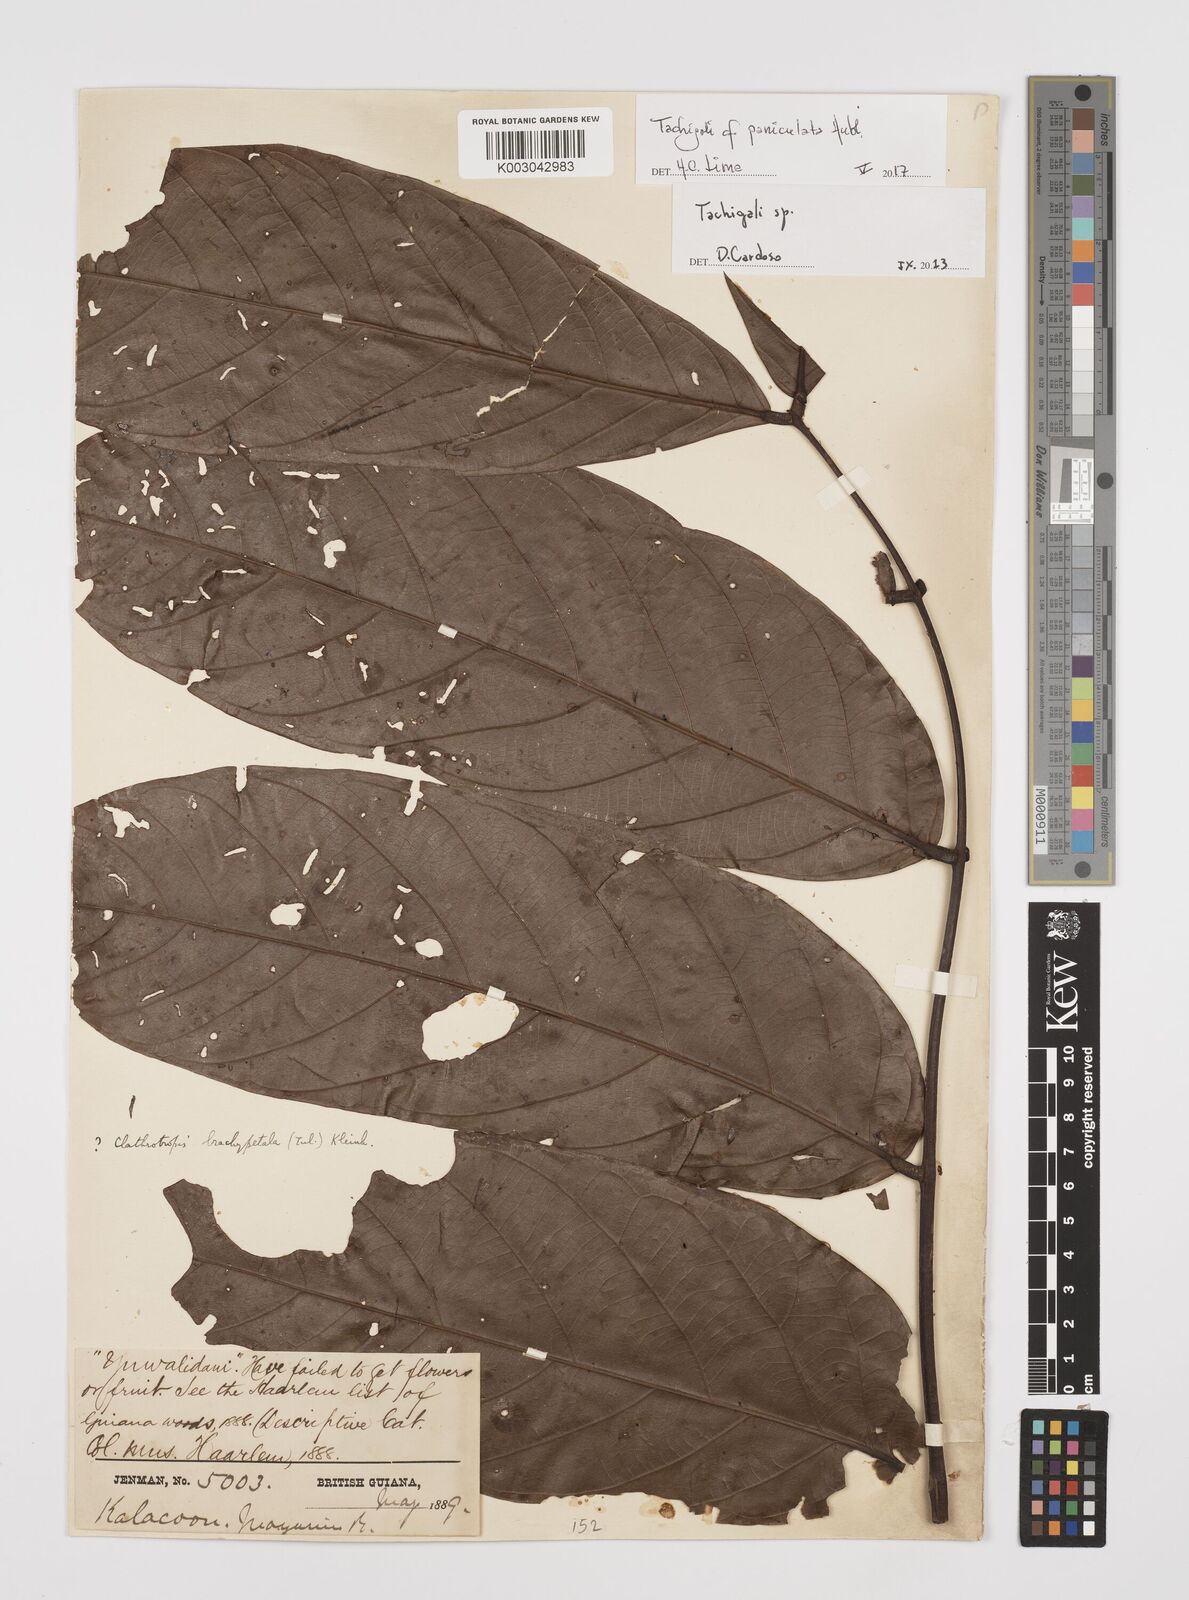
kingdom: Plantae
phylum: Tracheophyta
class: Magnoliopsida
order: Fabales
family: Fabaceae
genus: Tachigali
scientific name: Tachigali paniculata
